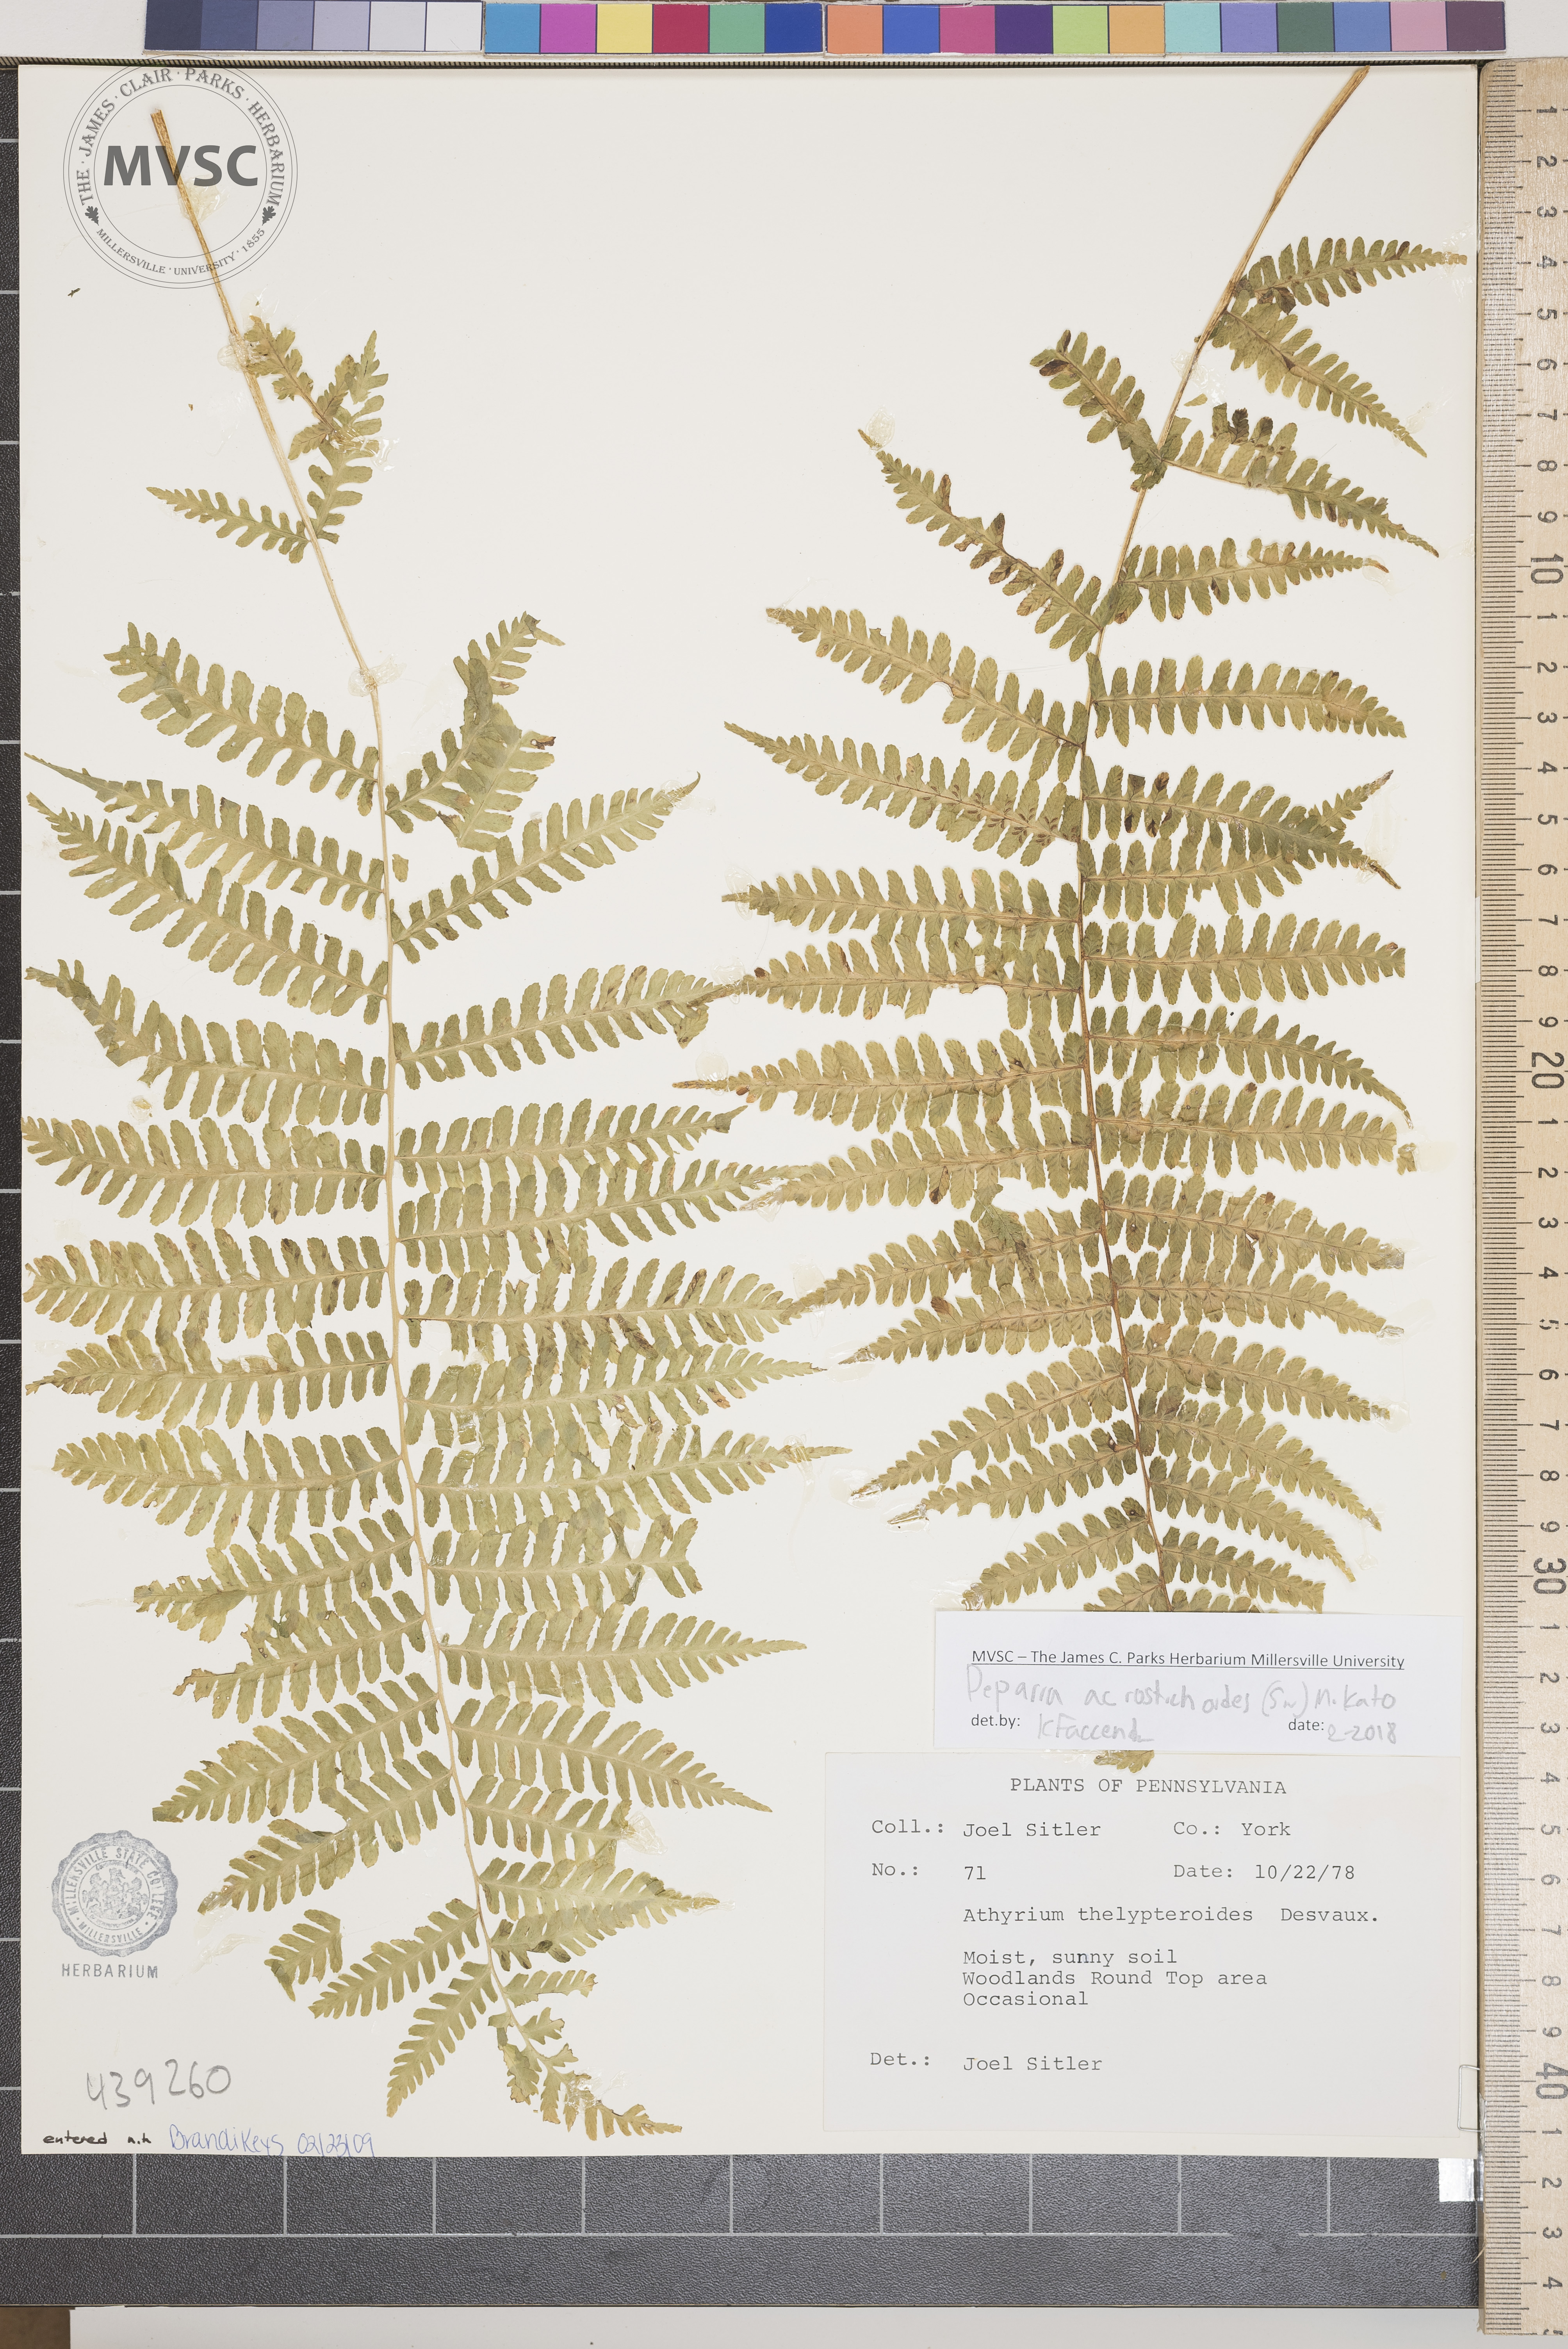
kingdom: Plantae
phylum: Tracheophyta
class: Polypodiopsida
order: Polypodiales
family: Athyriaceae
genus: Deparia
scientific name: Deparia acrostichoides
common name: Silvery Glade fern
